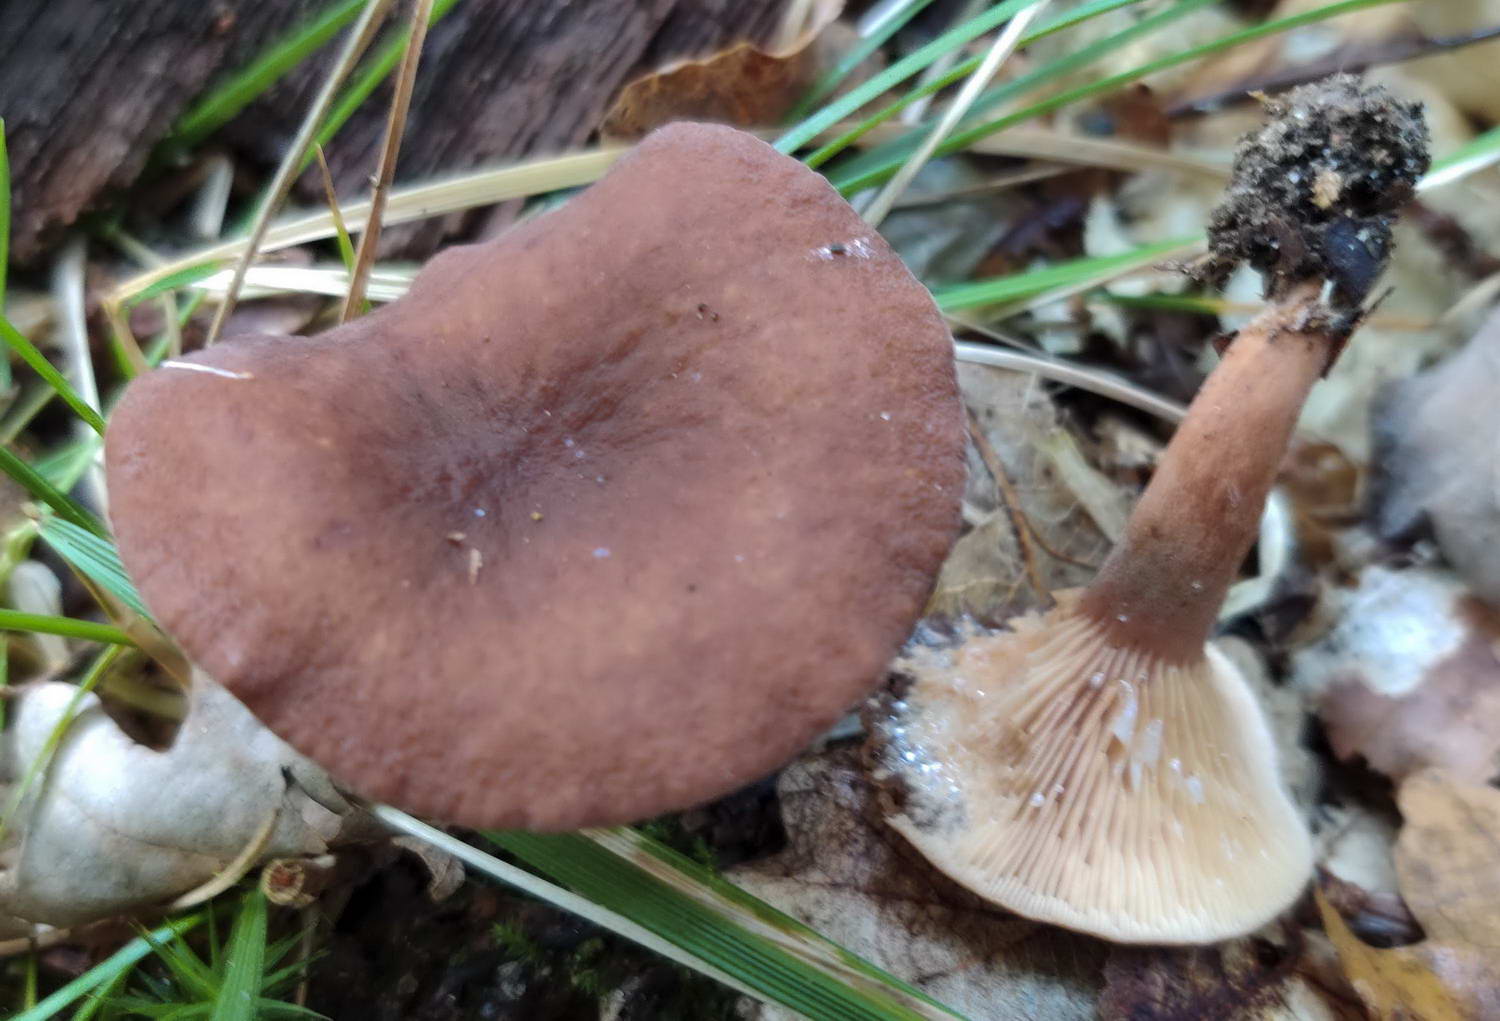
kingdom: Fungi
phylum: Basidiomycota
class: Agaricomycetes
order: Russulales
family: Russulaceae
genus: Lactarius
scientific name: Lactarius serifluus
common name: tæge-mælkehat
